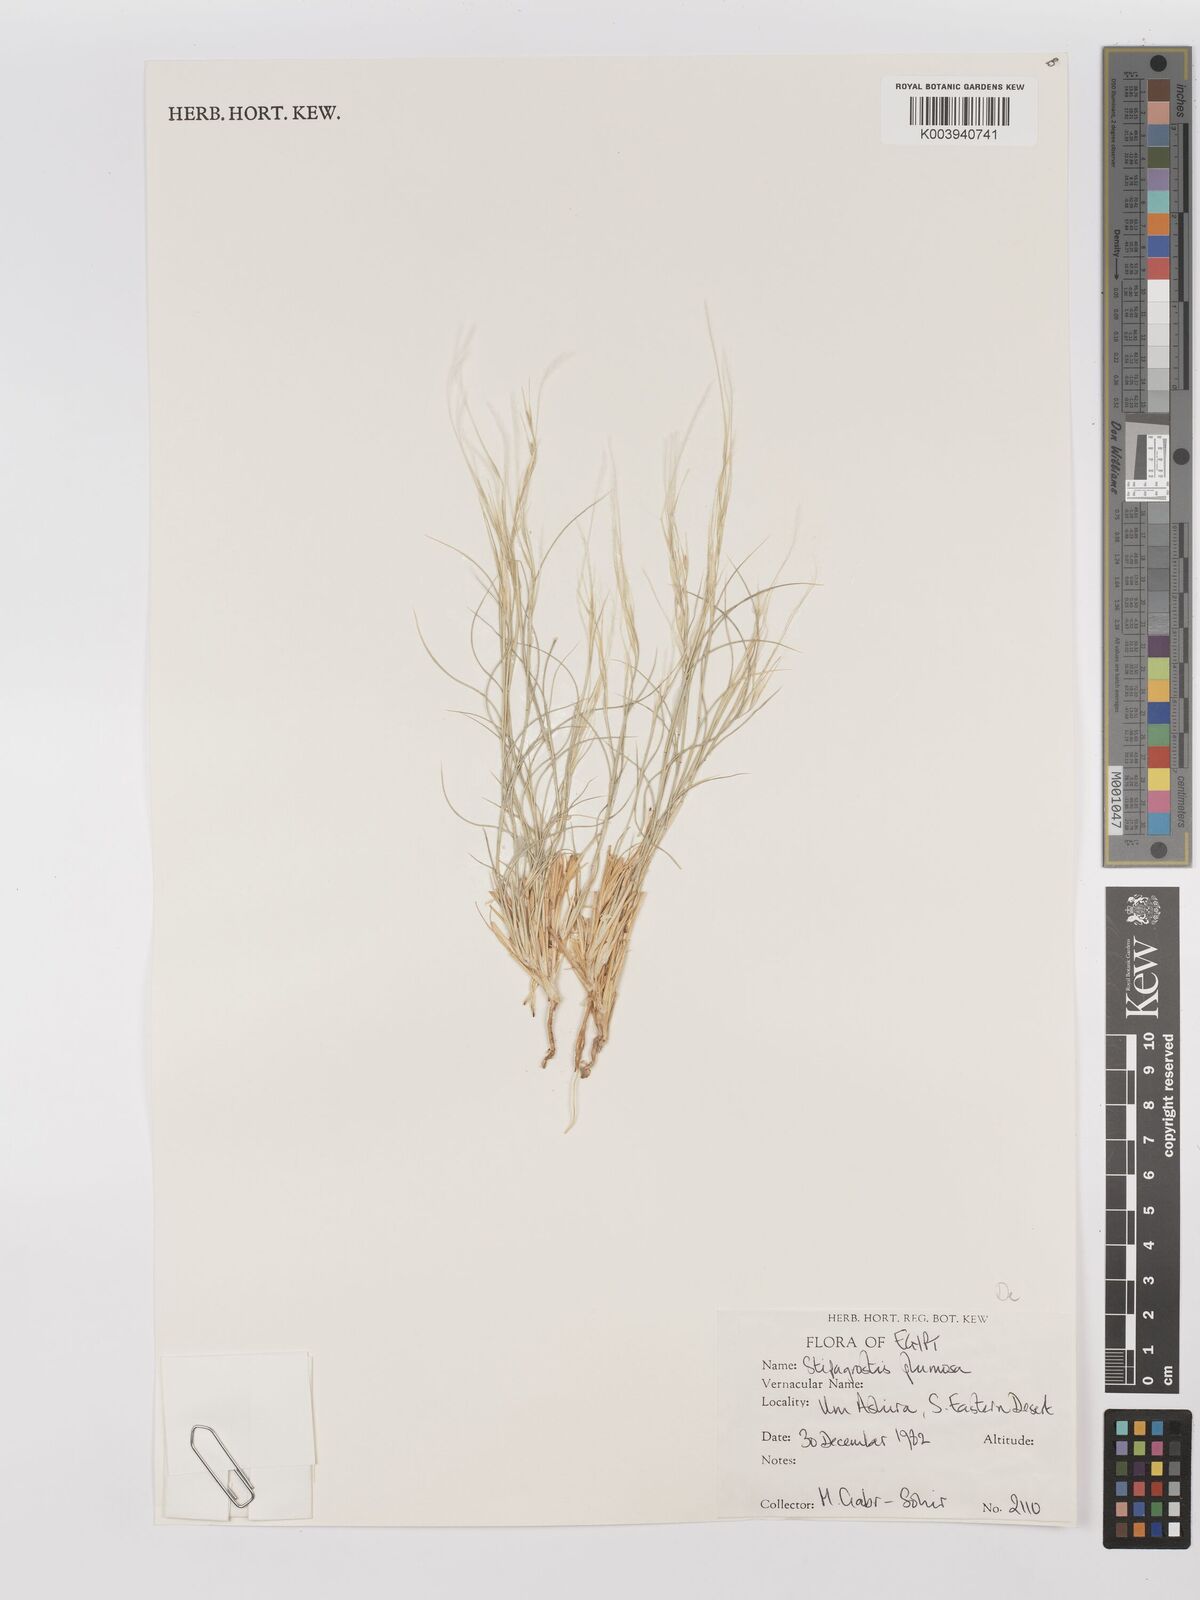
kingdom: Plantae
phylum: Tracheophyta
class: Liliopsida
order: Poales
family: Poaceae
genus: Stipagrostis
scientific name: Stipagrostis plumosa
